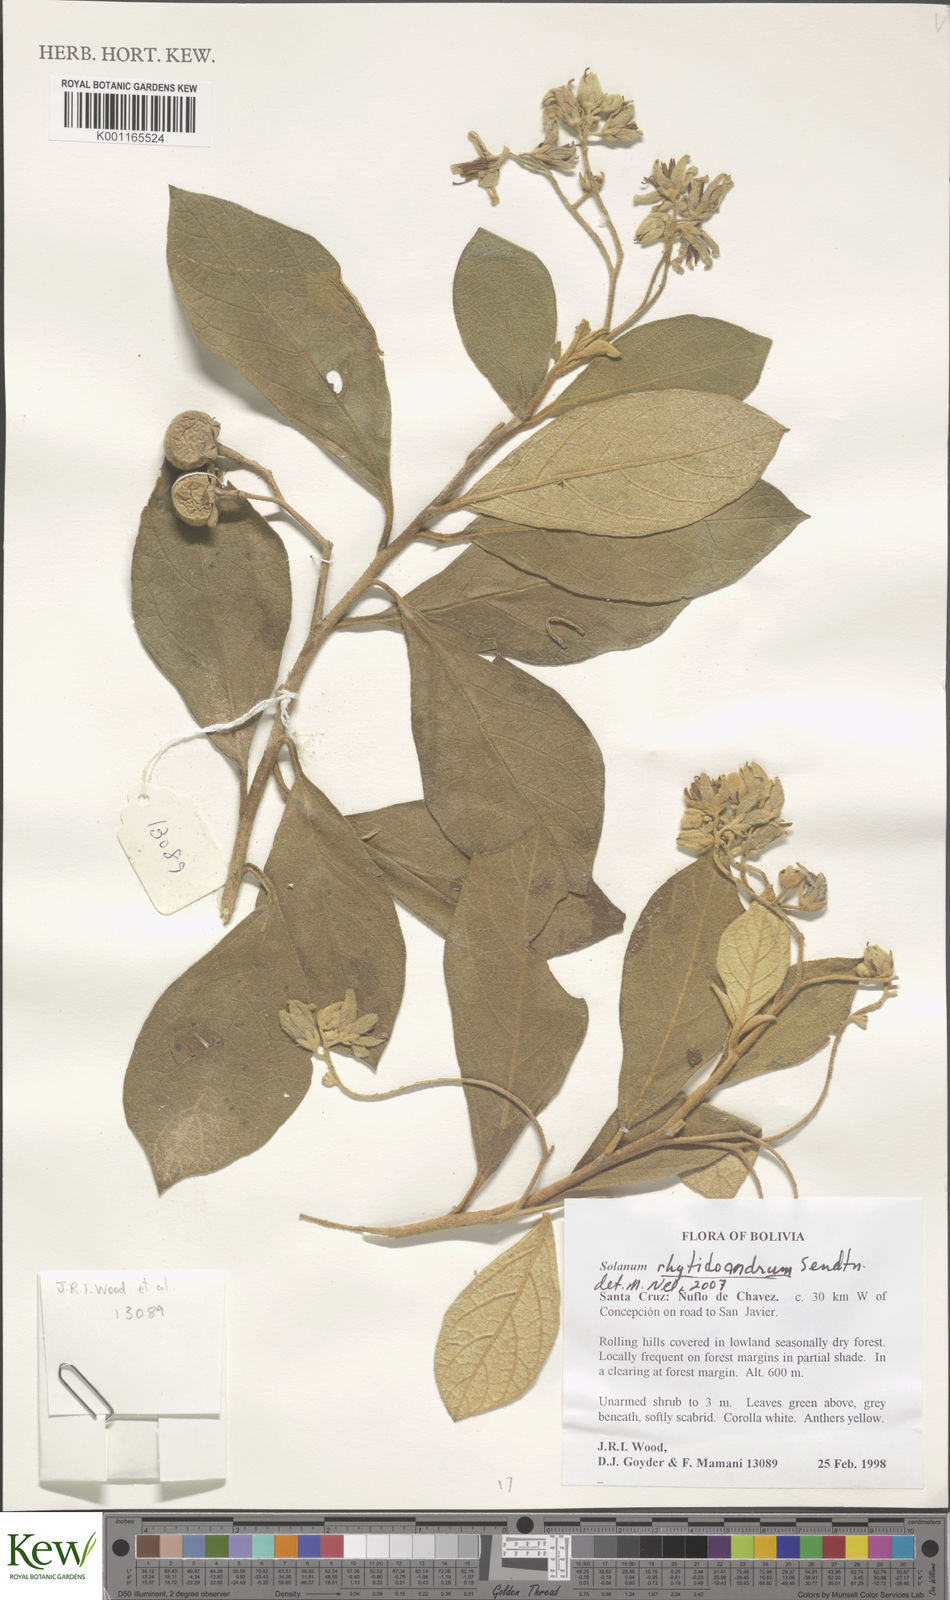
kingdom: Plantae
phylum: Tracheophyta
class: Magnoliopsida
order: Solanales
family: Solanaceae
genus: Solanum
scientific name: Solanum rhytidoandrum
